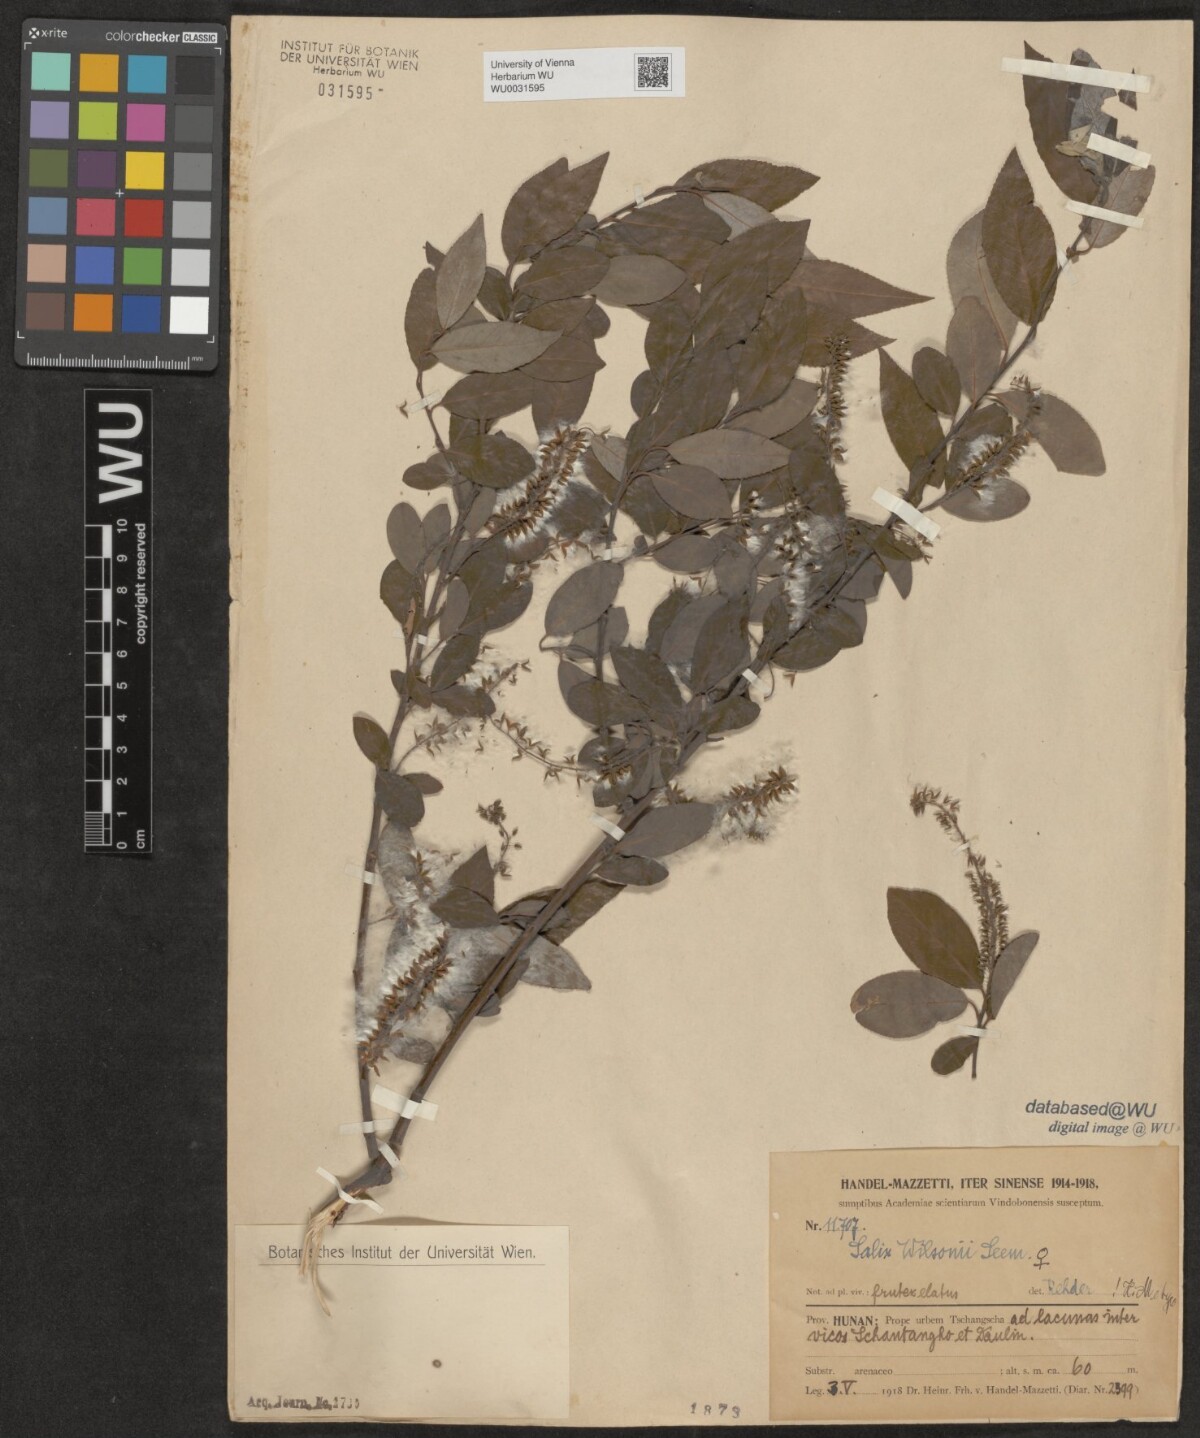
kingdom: Plantae
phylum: Tracheophyta
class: Magnoliopsida
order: Malpighiales
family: Salicaceae
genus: Salix
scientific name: Salix wilsonii
